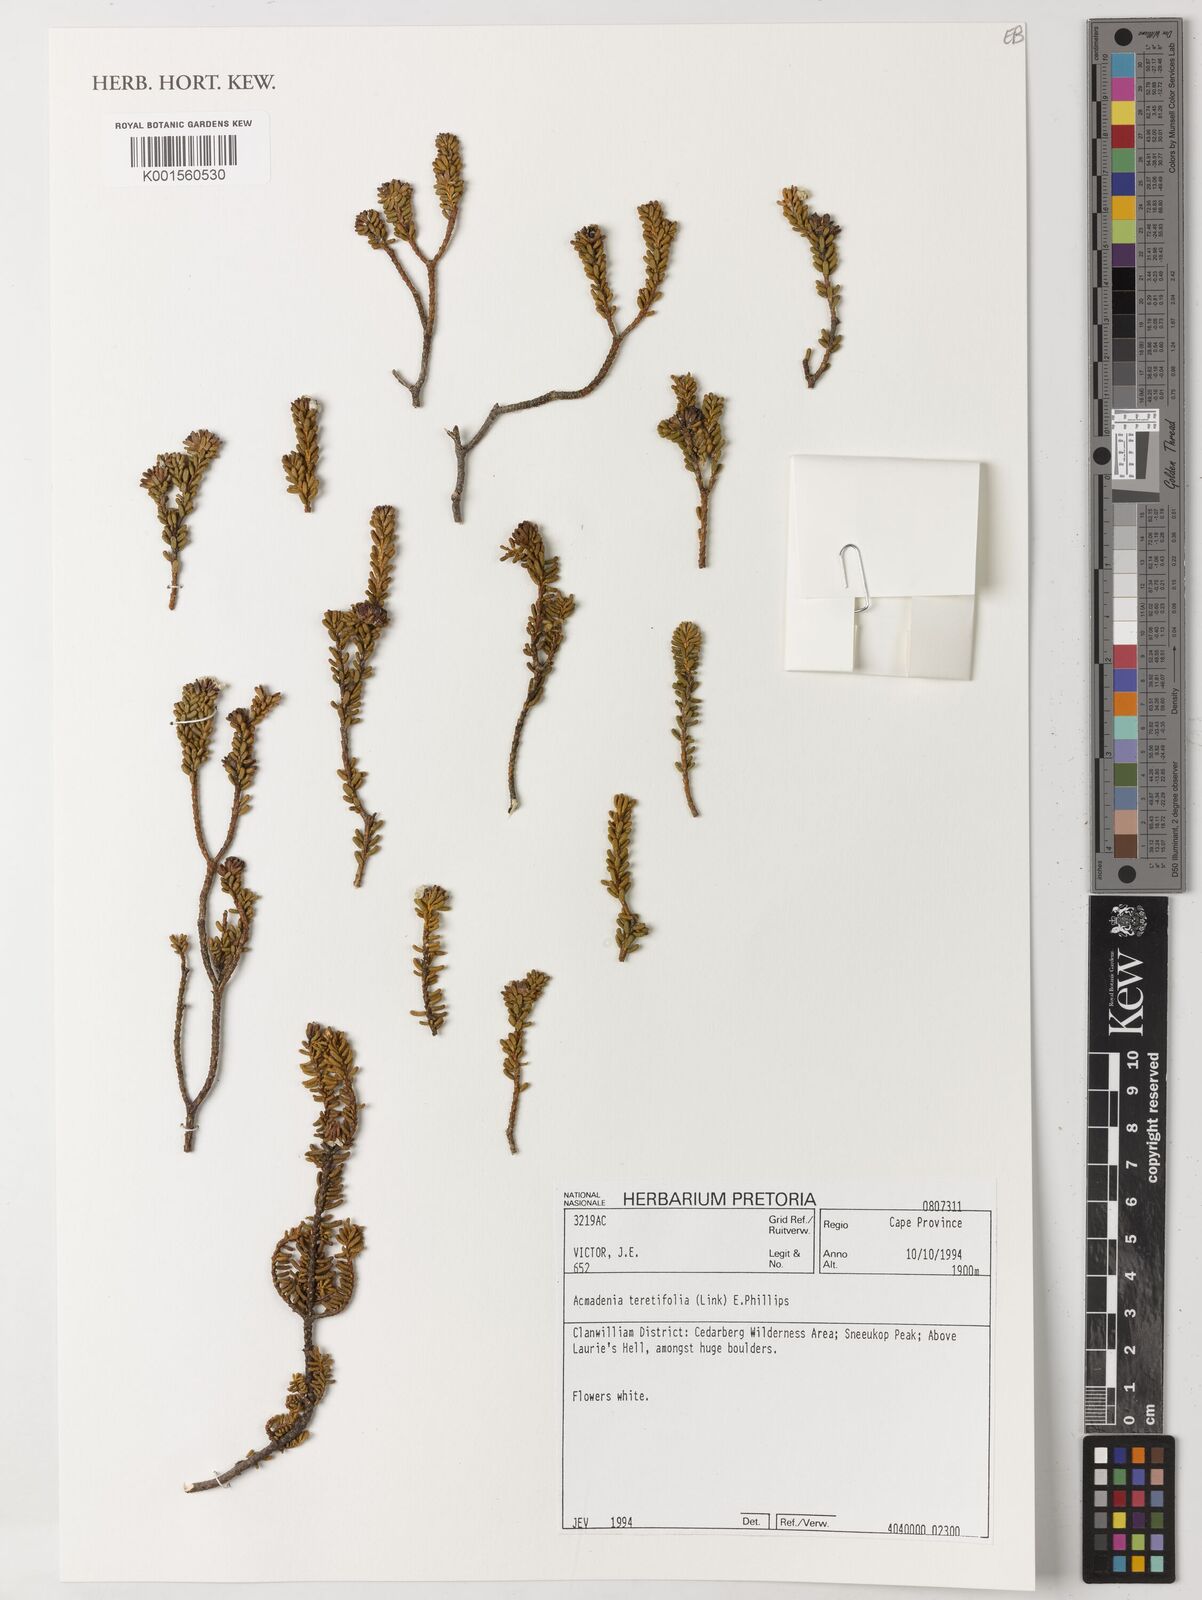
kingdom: Plantae
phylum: Tracheophyta
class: Magnoliopsida
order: Sapindales
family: Rutaceae
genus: Acmadenia
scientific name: Acmadenia teretifolia
